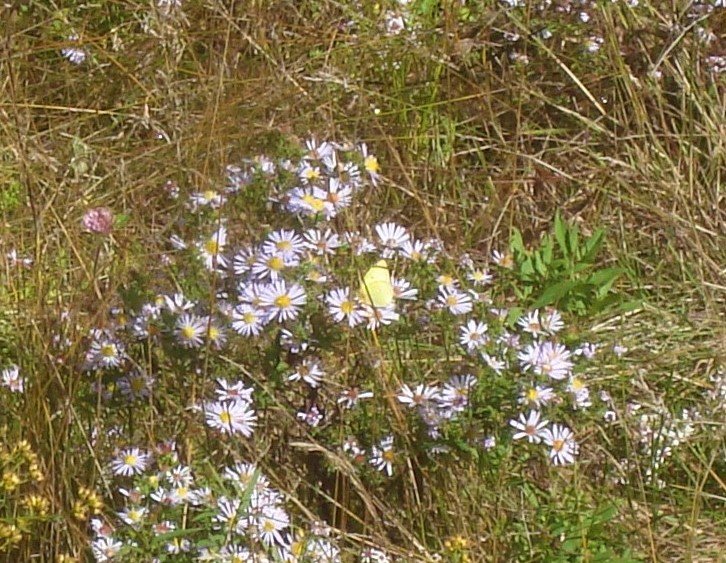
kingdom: Animalia
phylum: Arthropoda
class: Insecta
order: Lepidoptera
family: Pieridae
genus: Colias
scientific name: Colias philodice
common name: Clouded Sulphur
